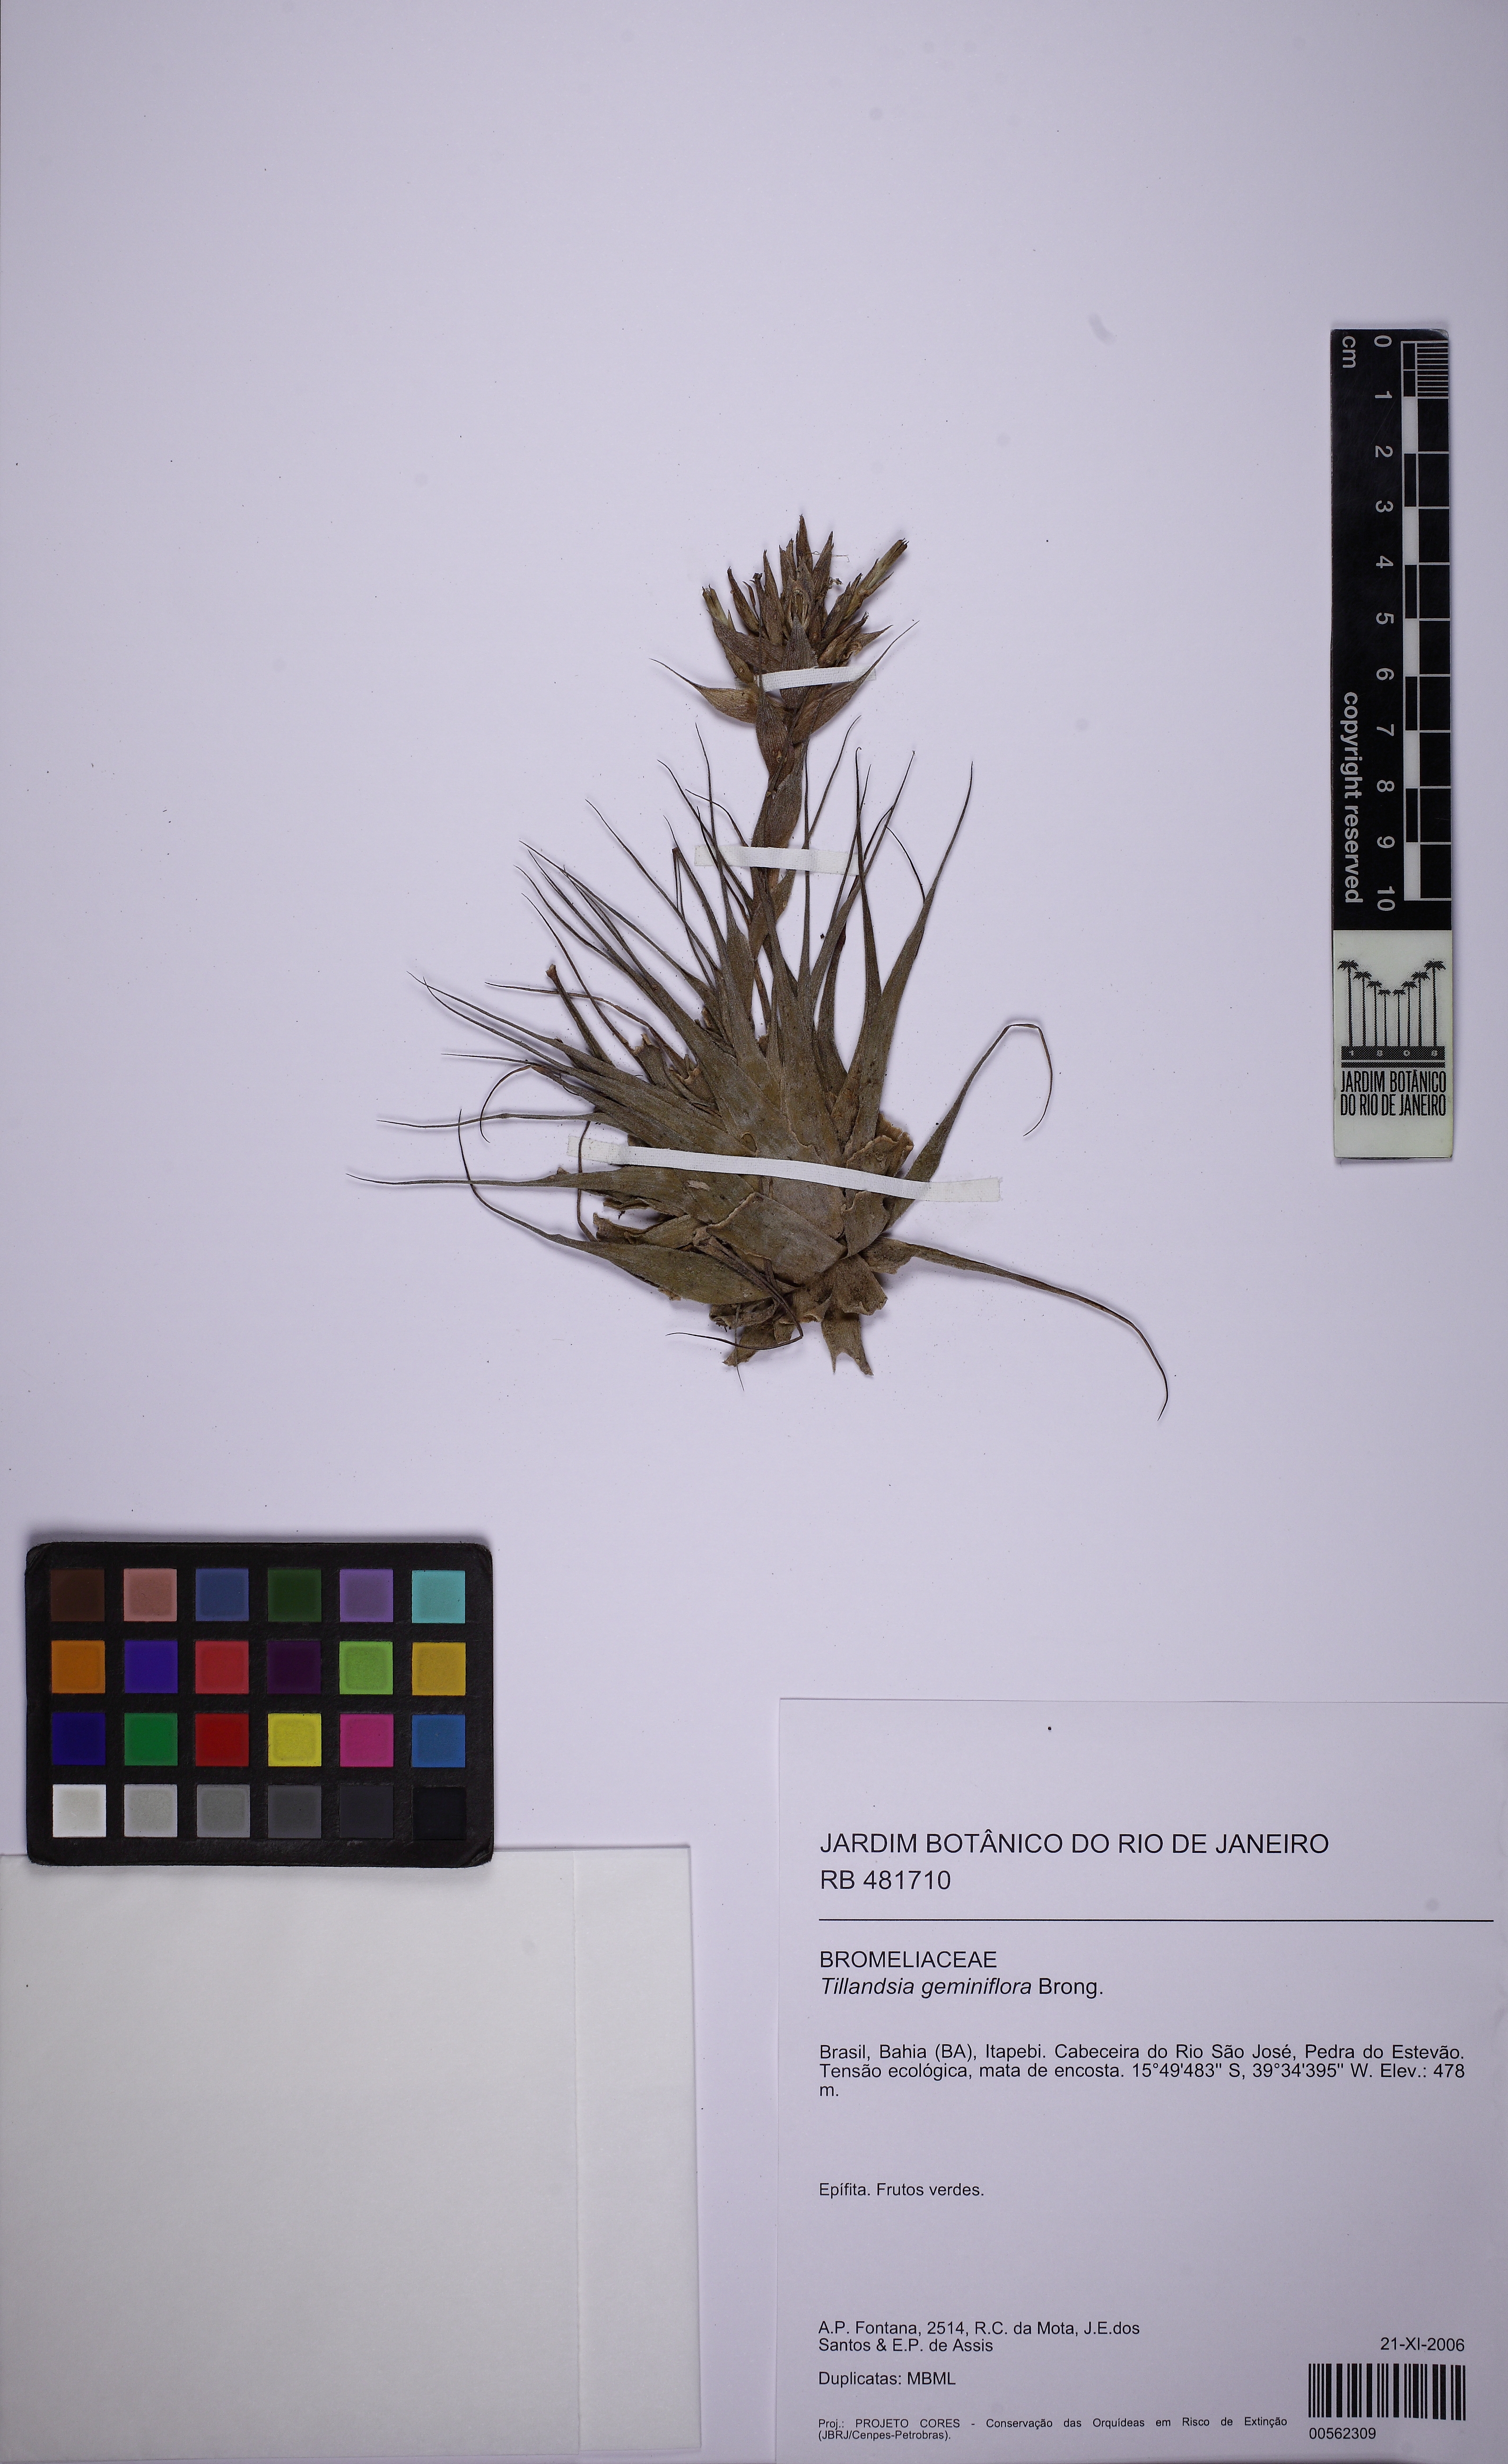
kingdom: Plantae
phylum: Tracheophyta
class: Liliopsida
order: Poales
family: Bromeliaceae
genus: Tillandsia
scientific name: Tillandsia geminiflora
